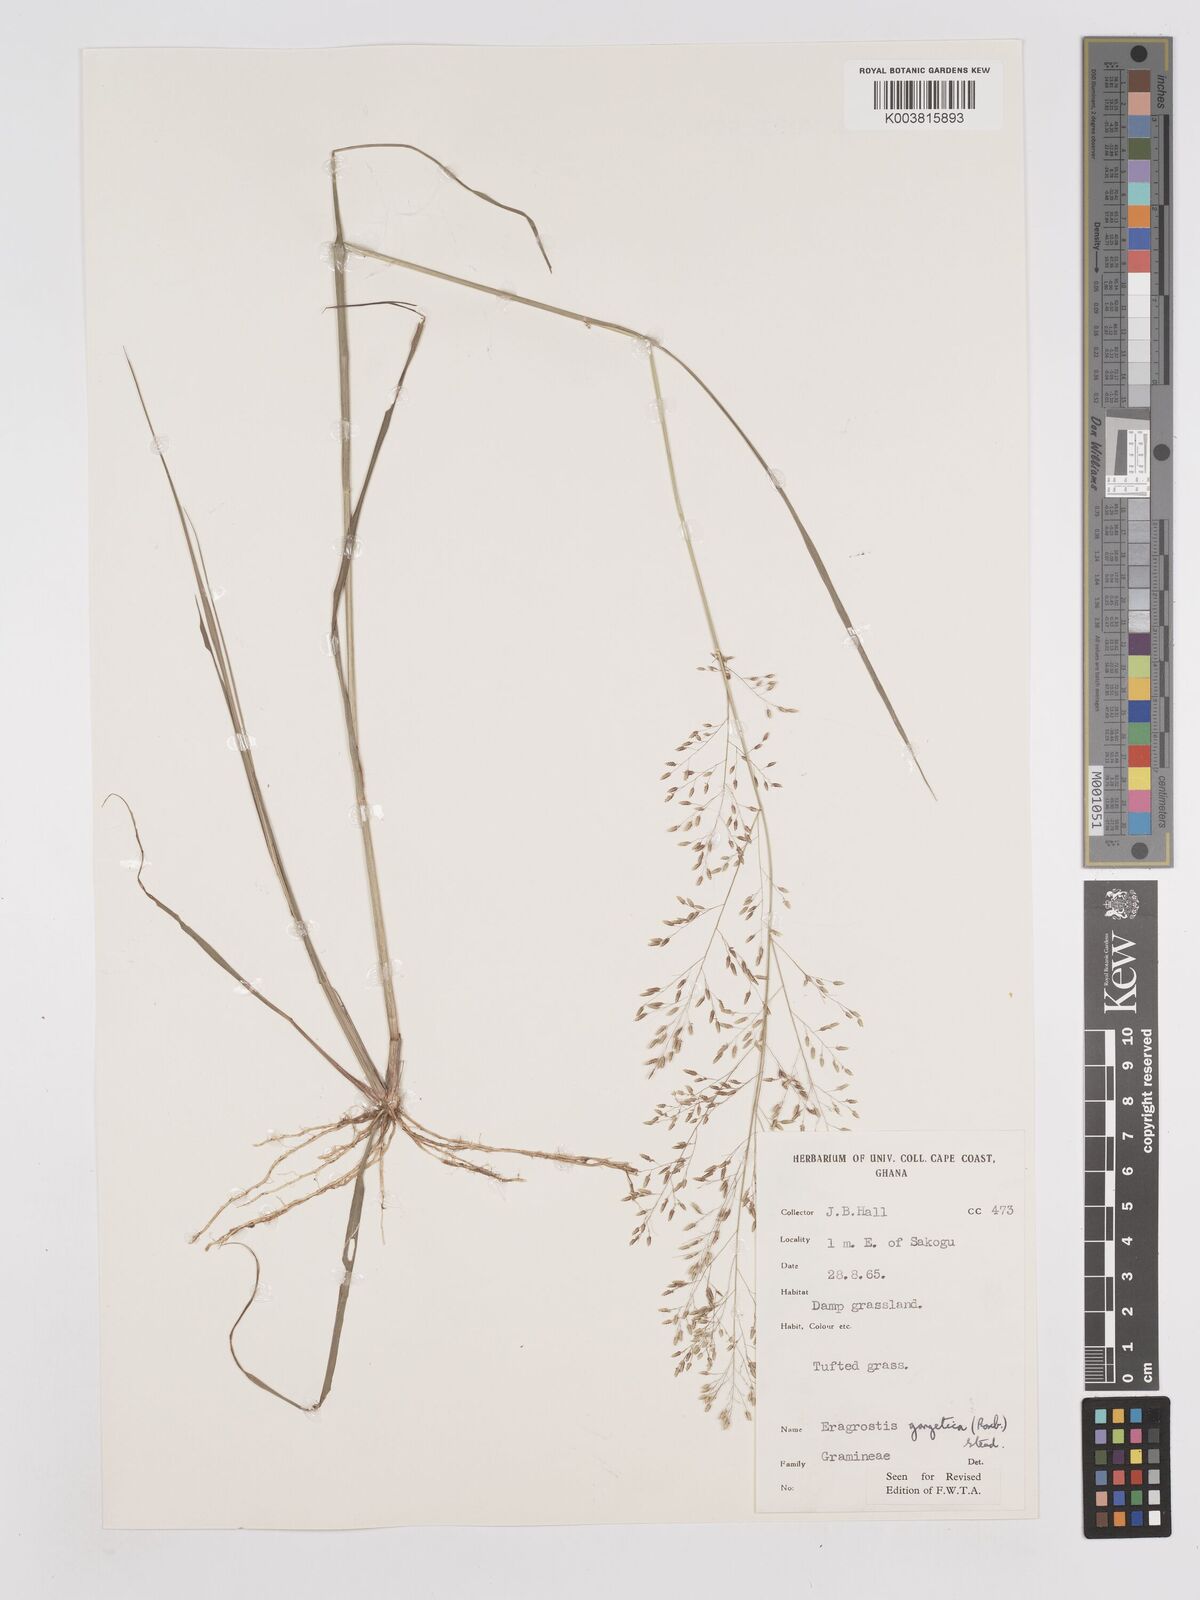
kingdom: Plantae
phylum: Tracheophyta
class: Liliopsida
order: Poales
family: Poaceae
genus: Eragrostis
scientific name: Eragrostis gangetica
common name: Slimflower lovegrass
